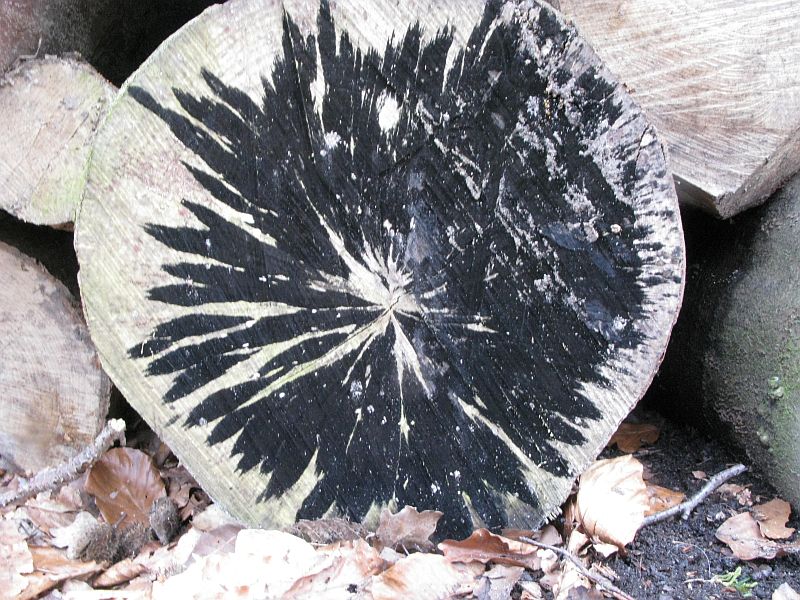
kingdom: Fungi
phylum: Ascomycota
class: Leotiomycetes
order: Helotiales
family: Helotiaceae
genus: Bispora
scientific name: Bispora pallescens
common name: måtte-snitskive
